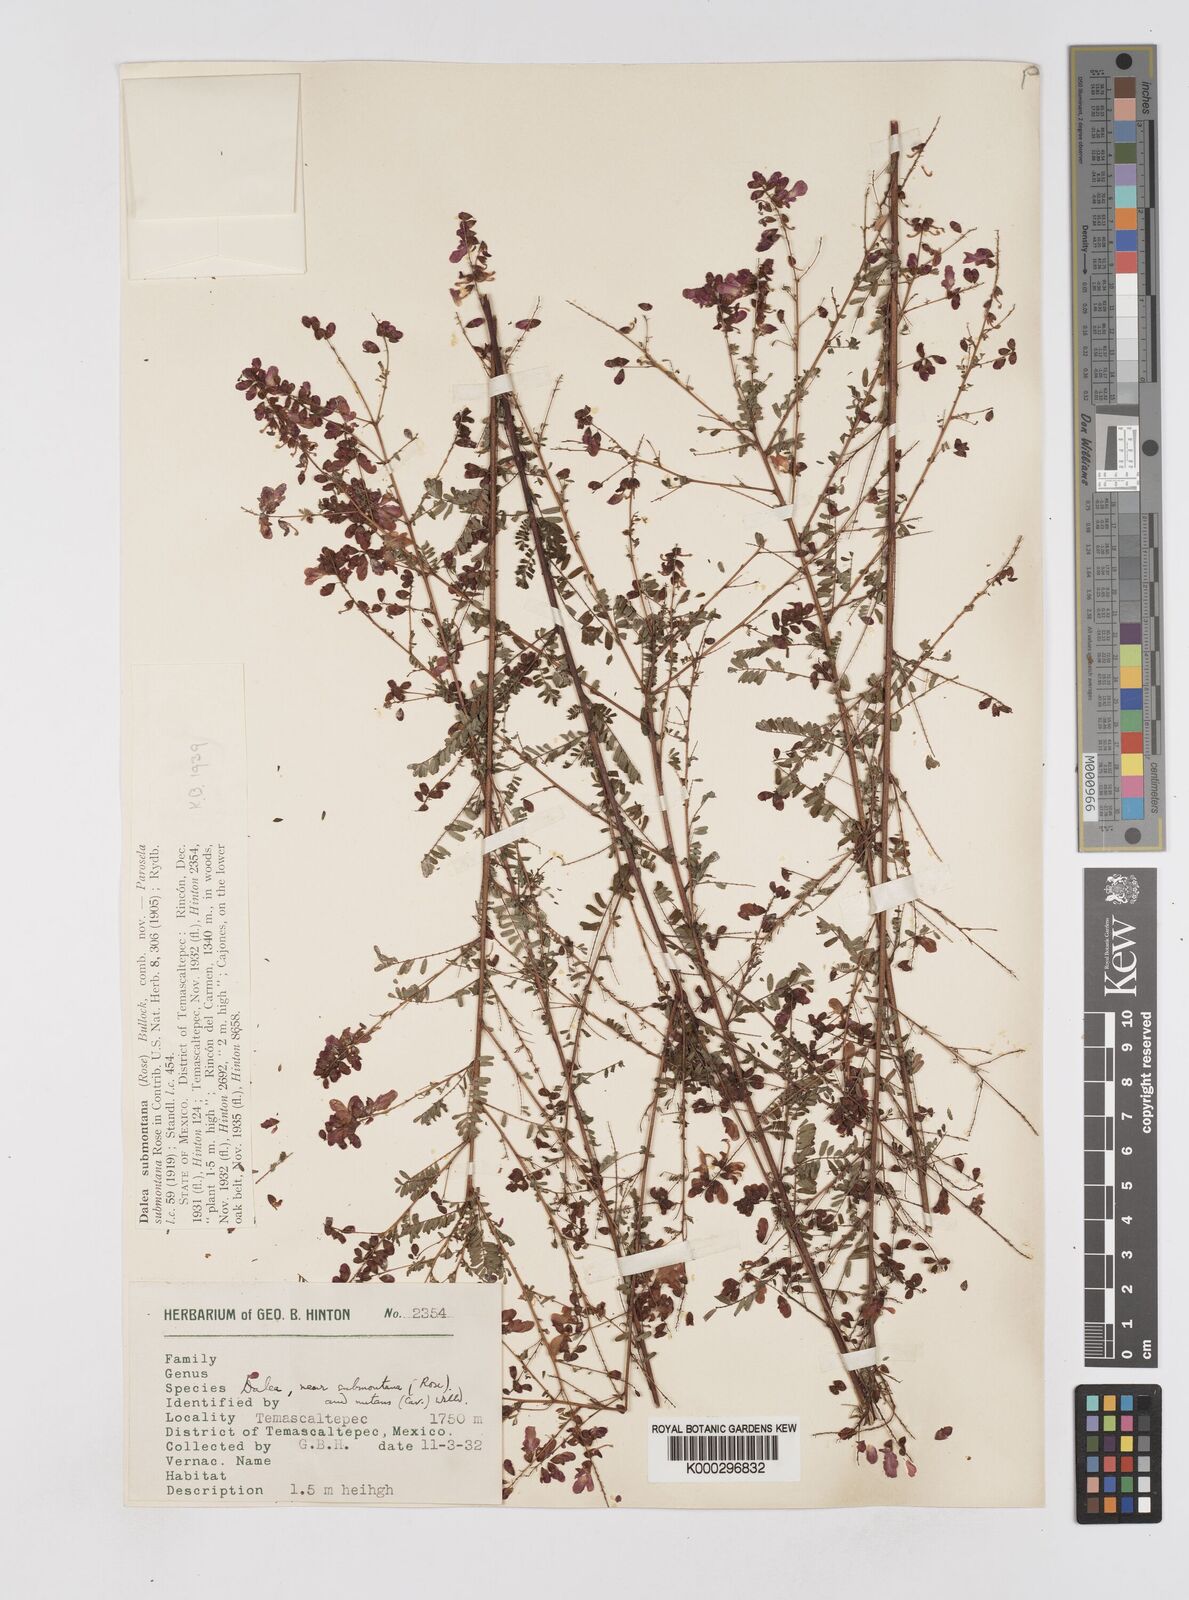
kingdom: Plantae
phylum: Tracheophyta
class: Magnoliopsida
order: Fabales
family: Fabaceae
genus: Marina
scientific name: Marina nutans
